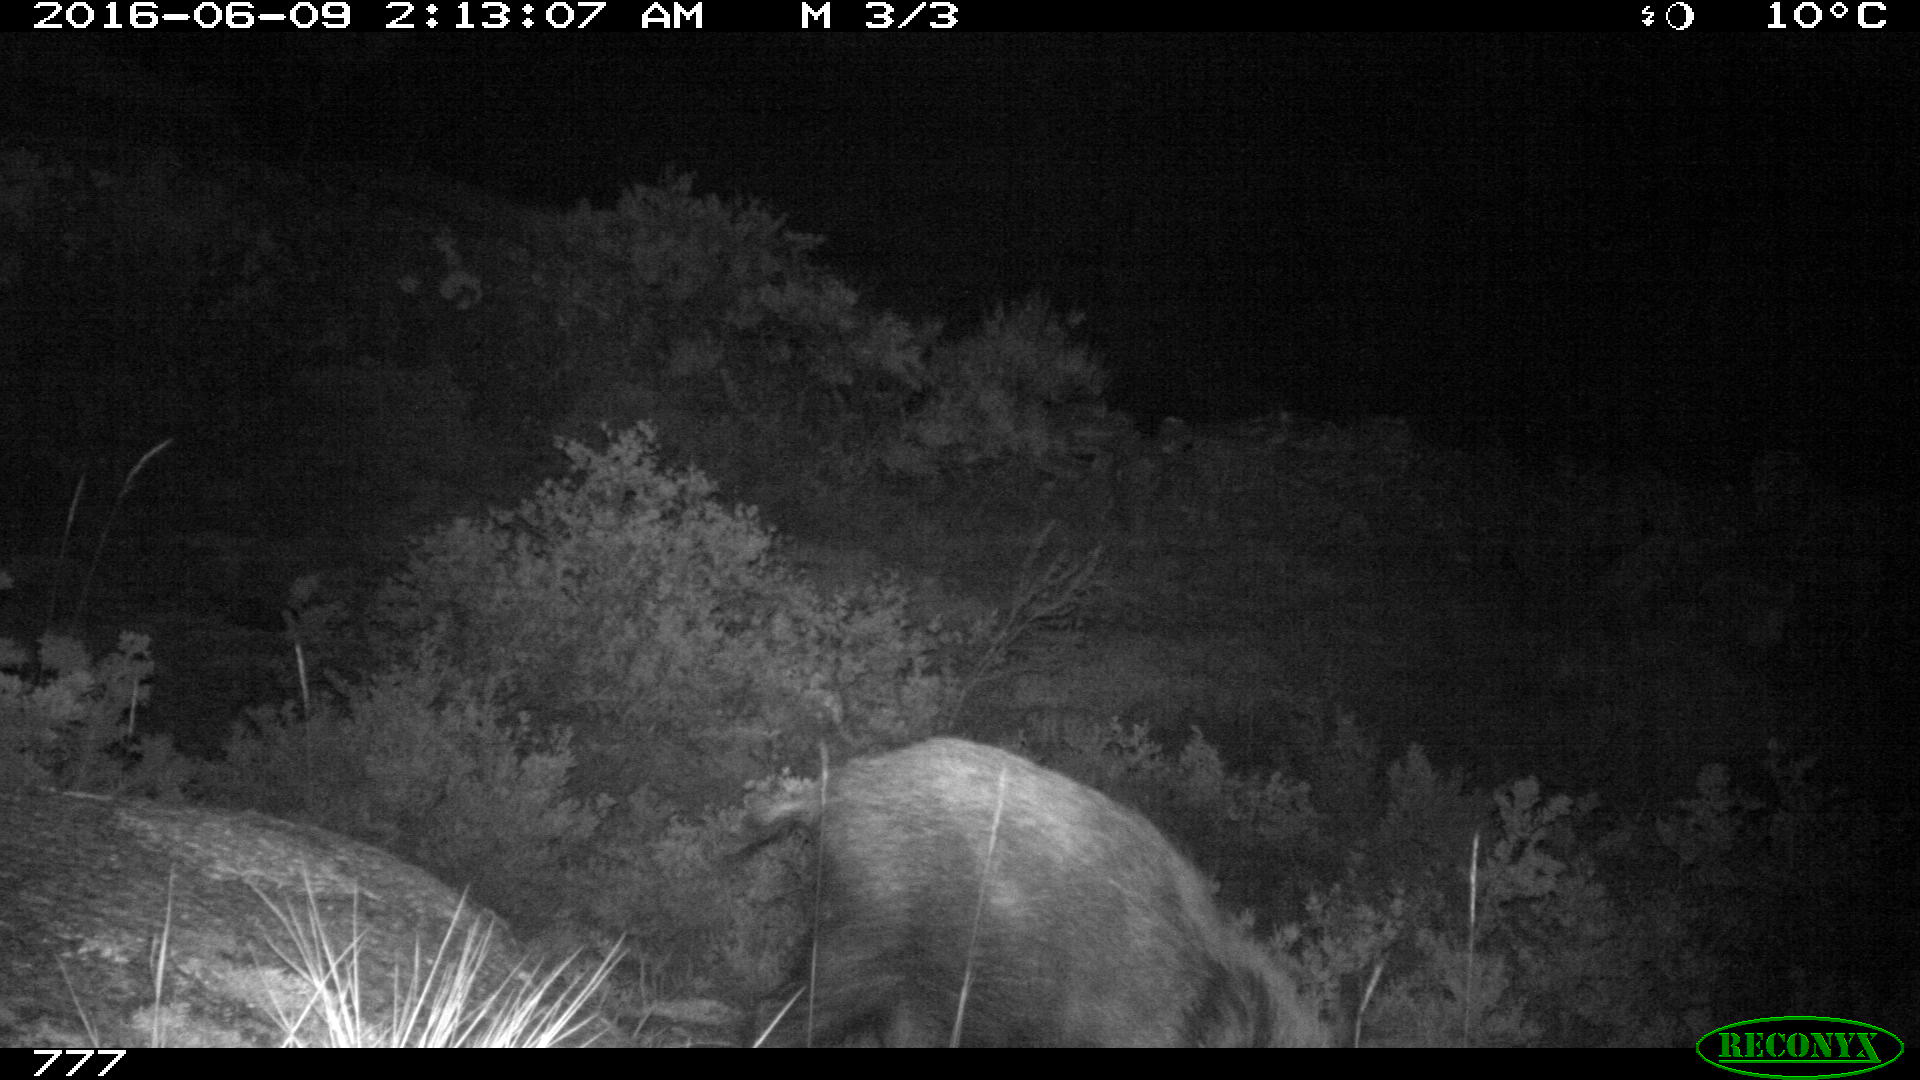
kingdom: Animalia
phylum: Chordata
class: Mammalia
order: Artiodactyla
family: Suidae
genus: Sus
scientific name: Sus scrofa
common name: Wild boar
